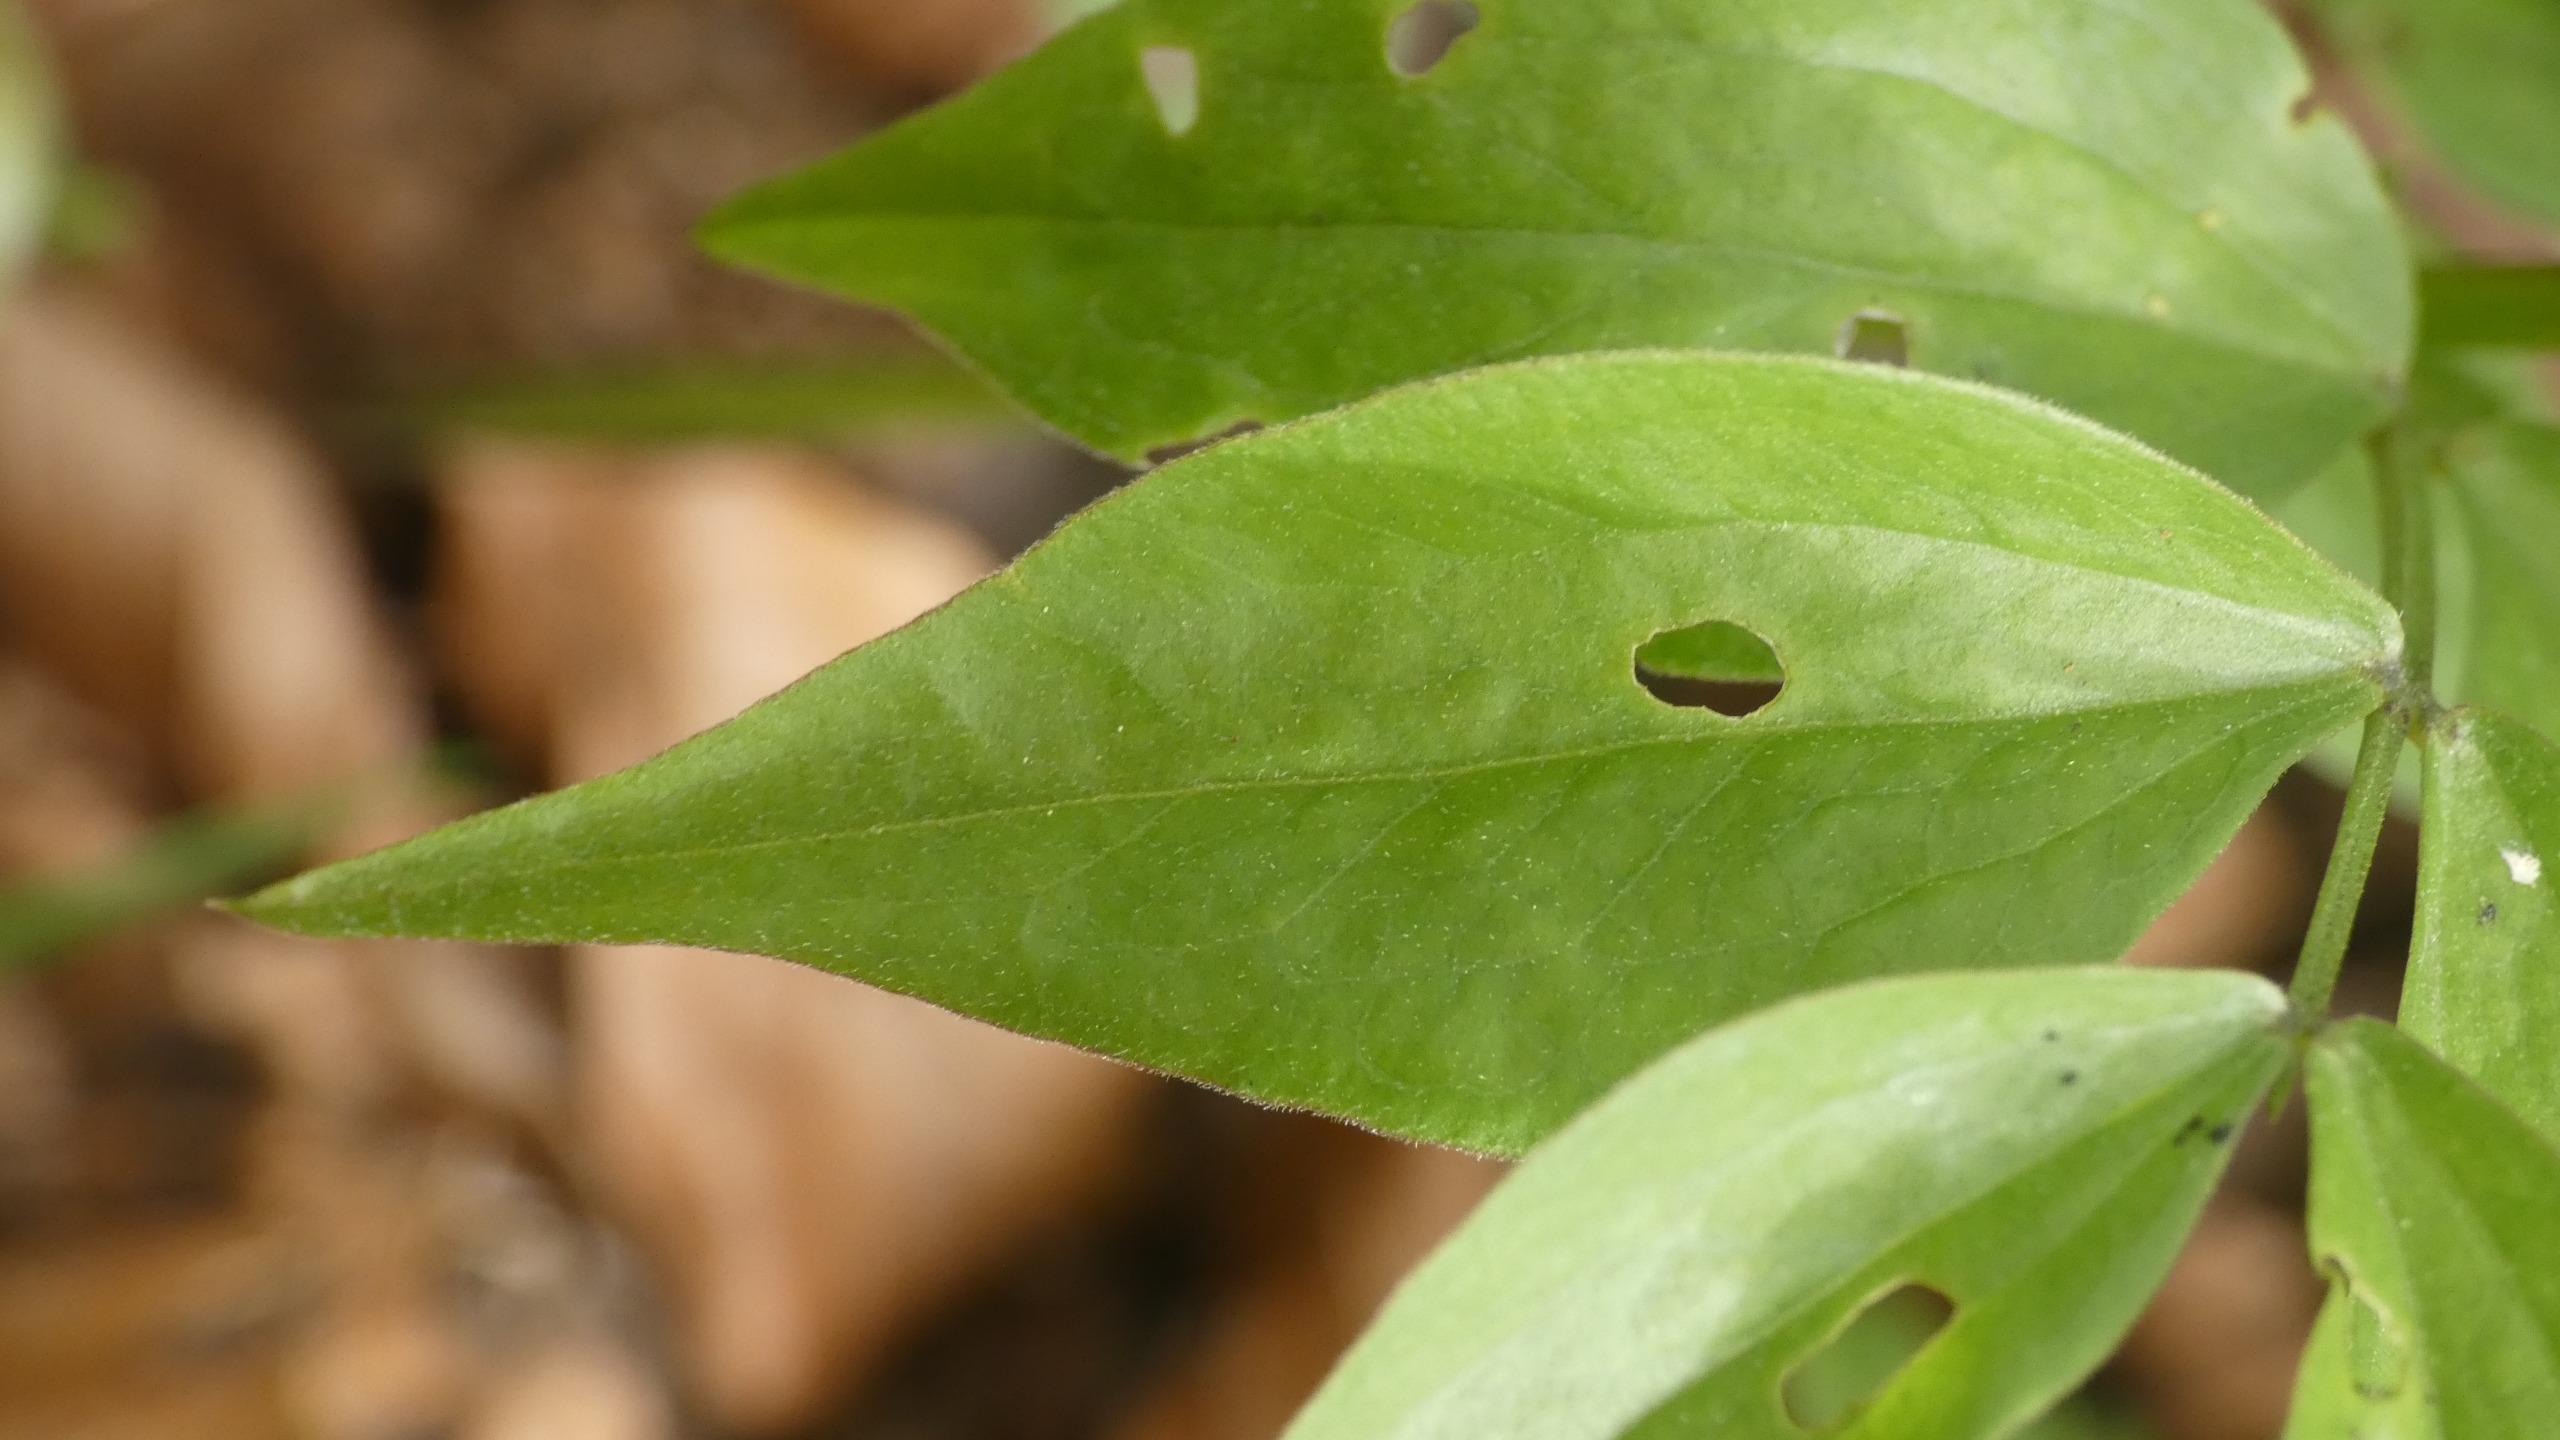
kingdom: Plantae
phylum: Tracheophyta
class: Magnoliopsida
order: Fabales
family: Fabaceae
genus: Lathyrus
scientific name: Lathyrus vernus
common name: Vår-fladbælg
